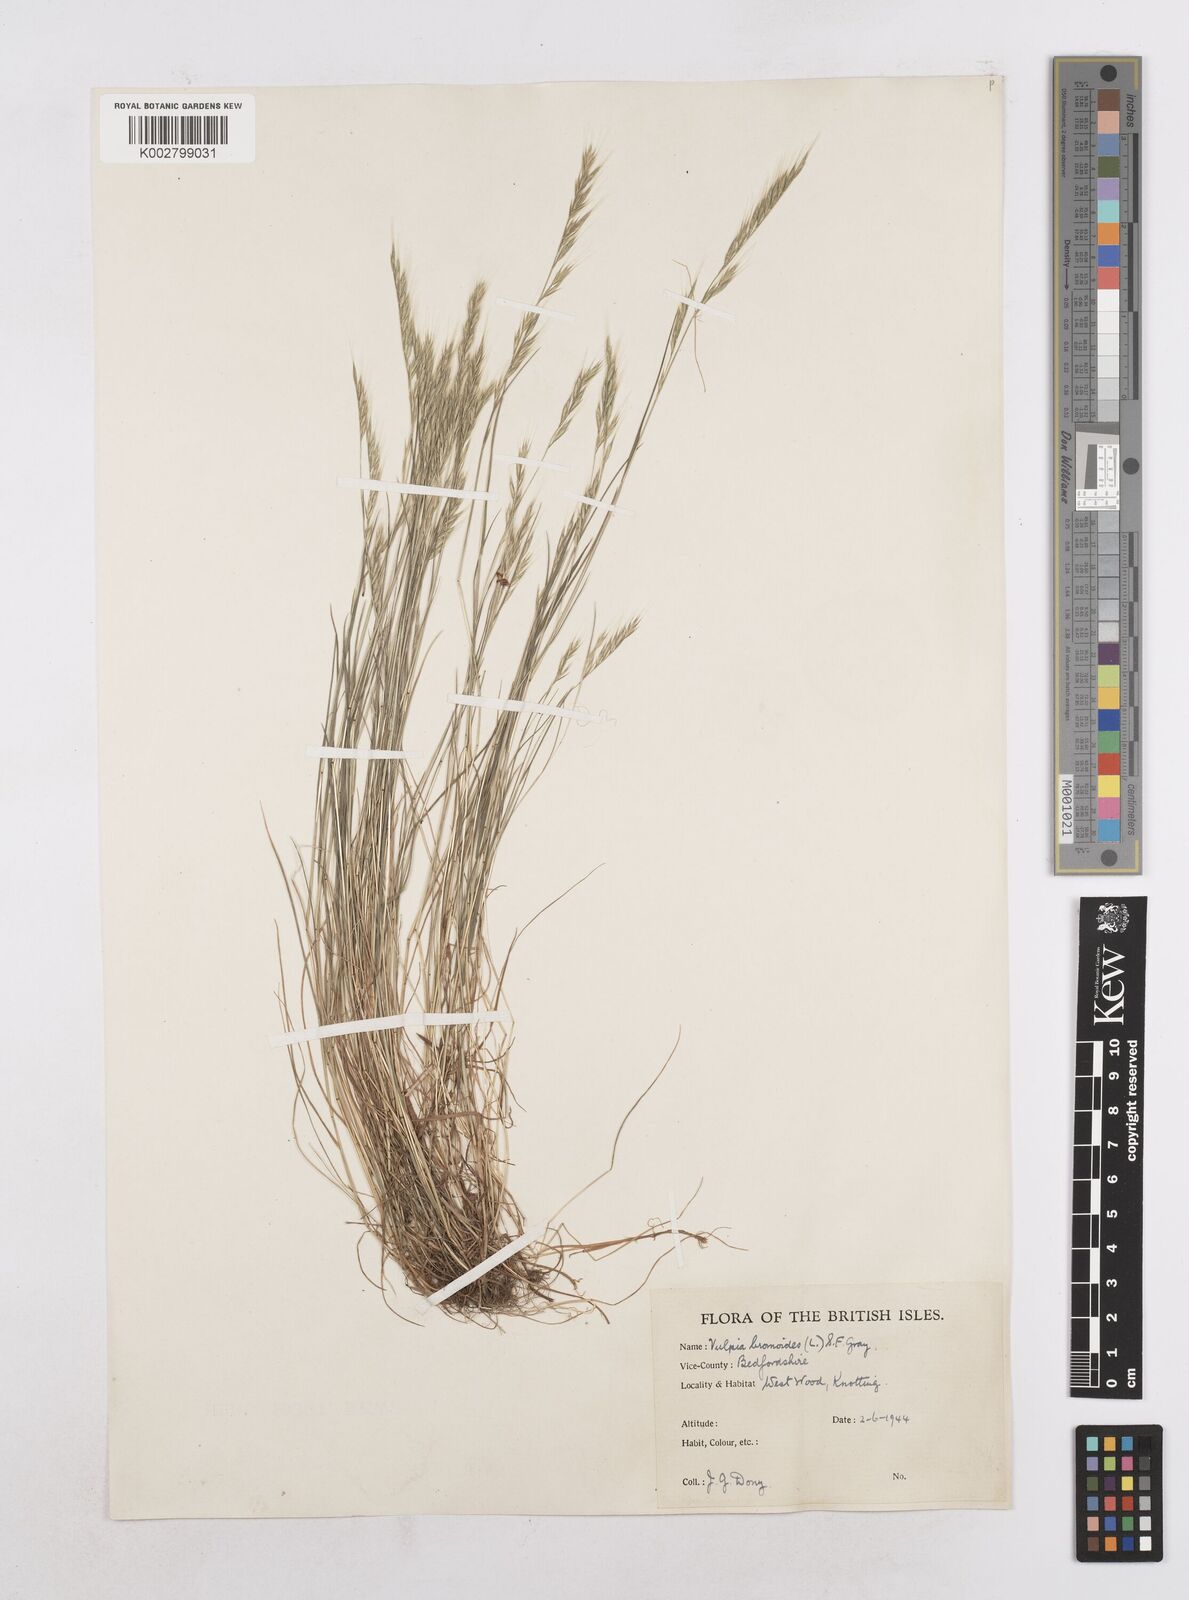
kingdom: Plantae
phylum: Tracheophyta
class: Liliopsida
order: Poales
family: Poaceae
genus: Festuca
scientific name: Festuca bromoides
